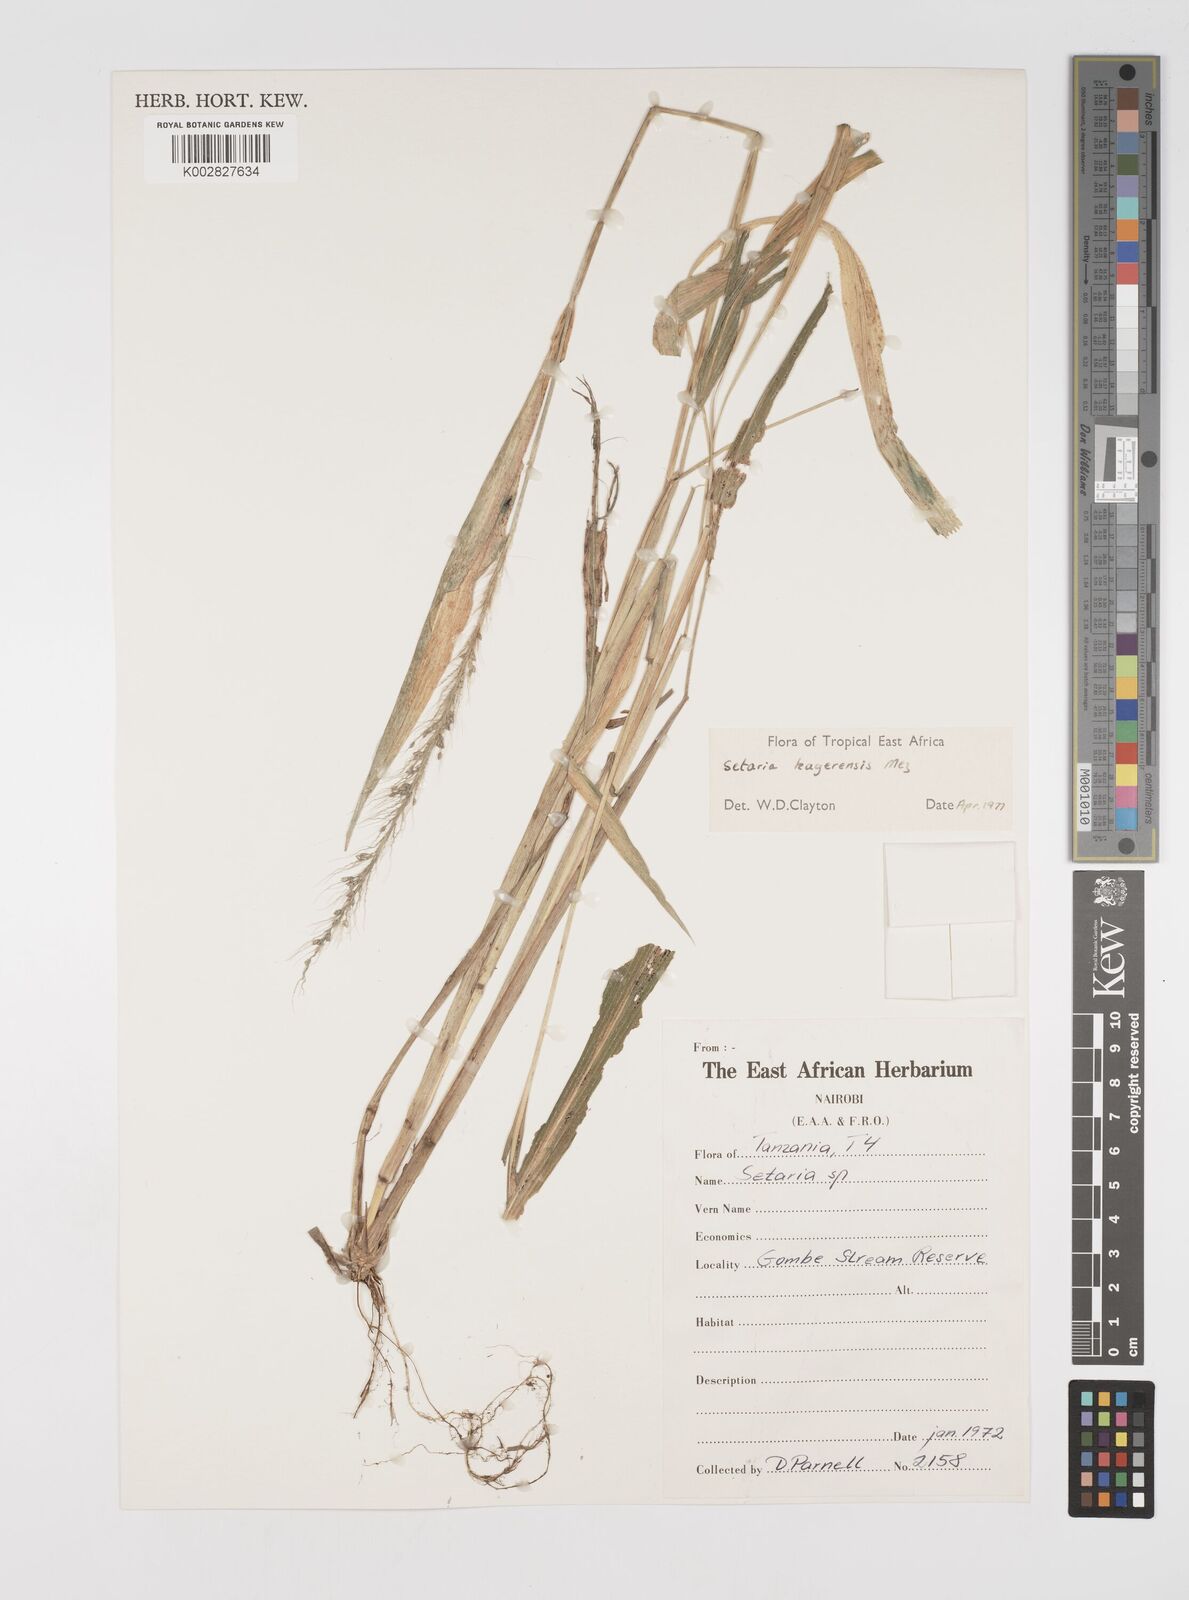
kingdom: Plantae
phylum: Tracheophyta
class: Liliopsida
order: Poales
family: Poaceae
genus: Setaria
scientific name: Setaria kagerensis
